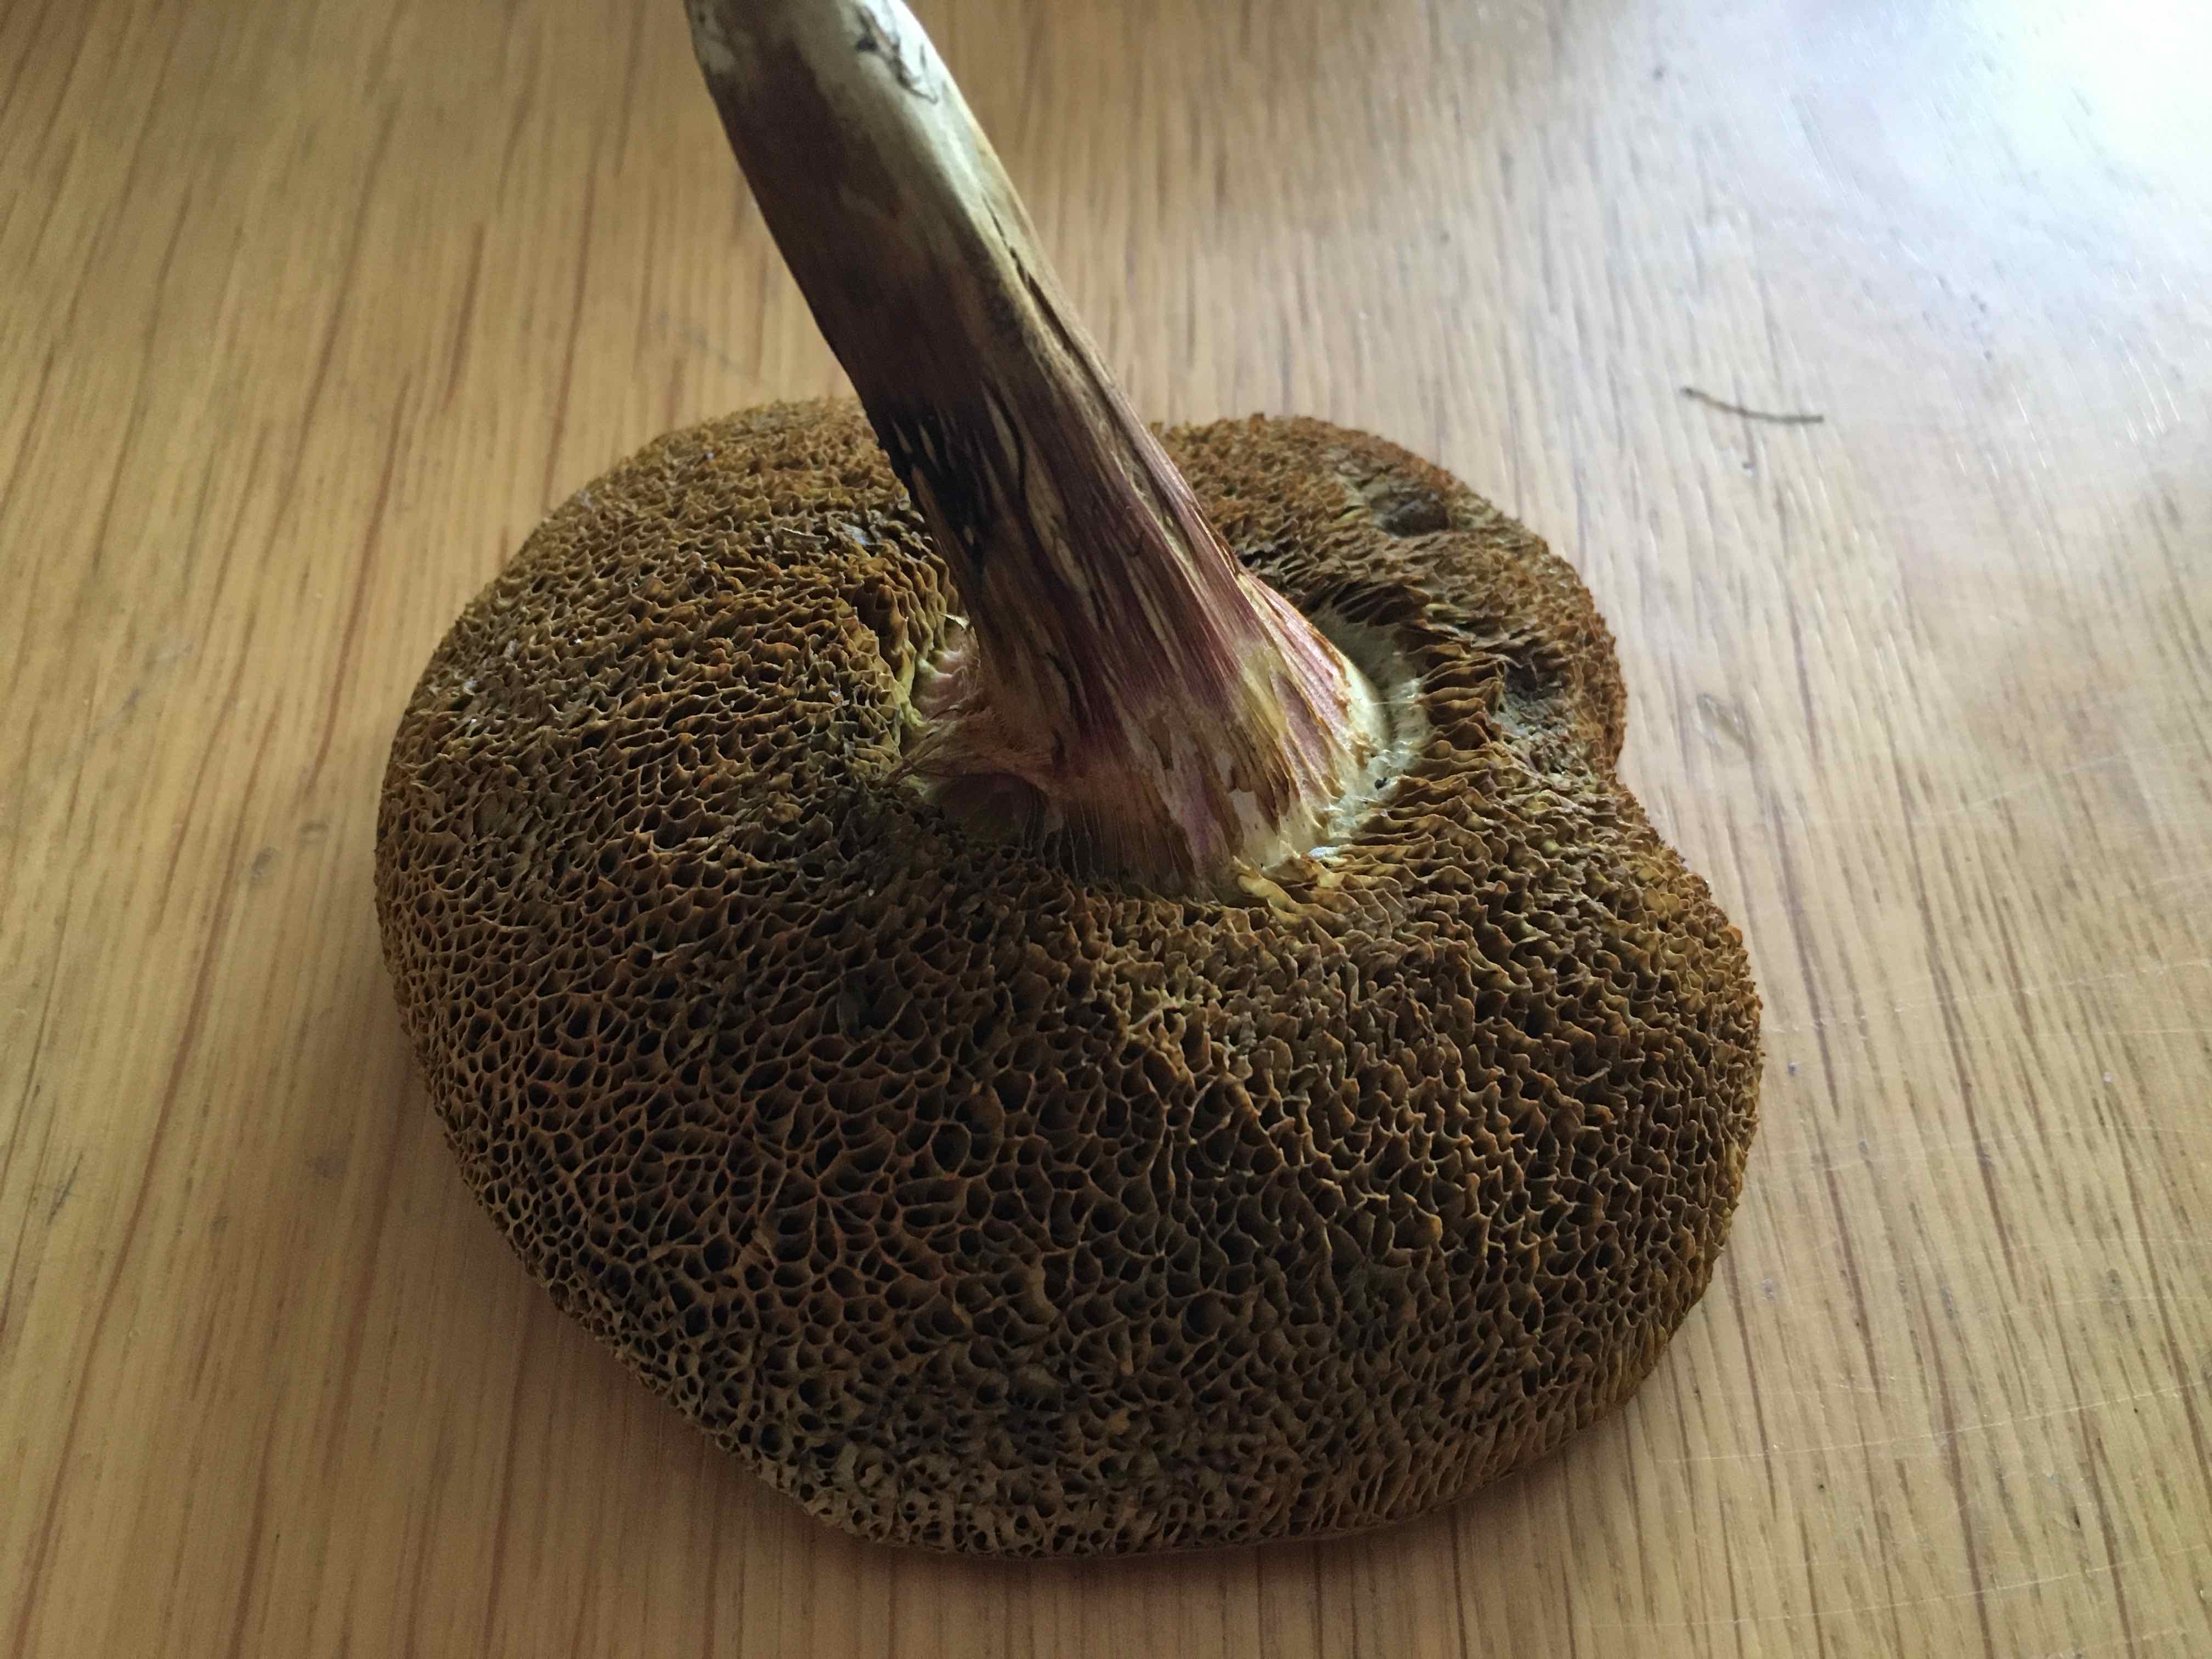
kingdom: Fungi
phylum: Basidiomycota
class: Agaricomycetes
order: Boletales
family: Boletaceae
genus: Xerocomellus
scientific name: Xerocomellus
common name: dværgrørhat
